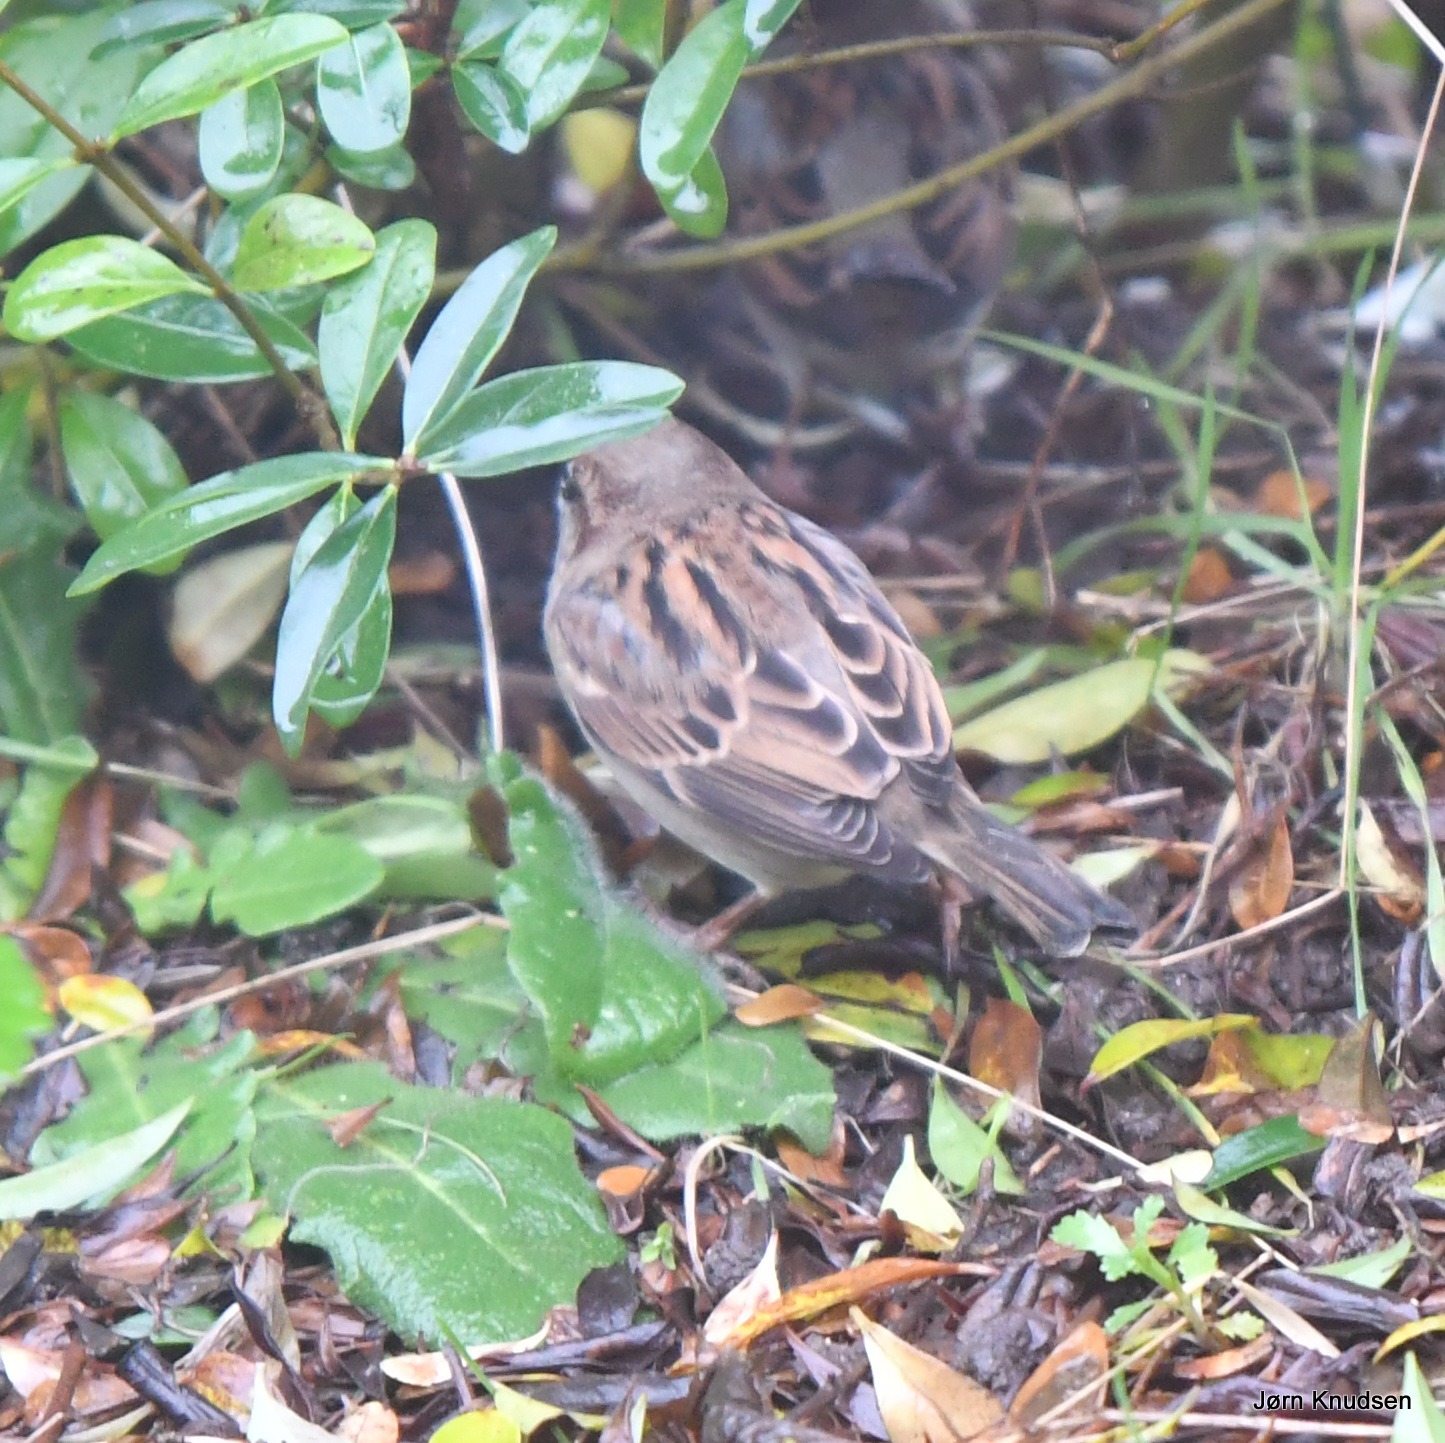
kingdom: Animalia
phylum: Chordata
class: Aves
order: Passeriformes
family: Passeridae
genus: Passer
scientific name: Passer domesticus
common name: Gråspurv
